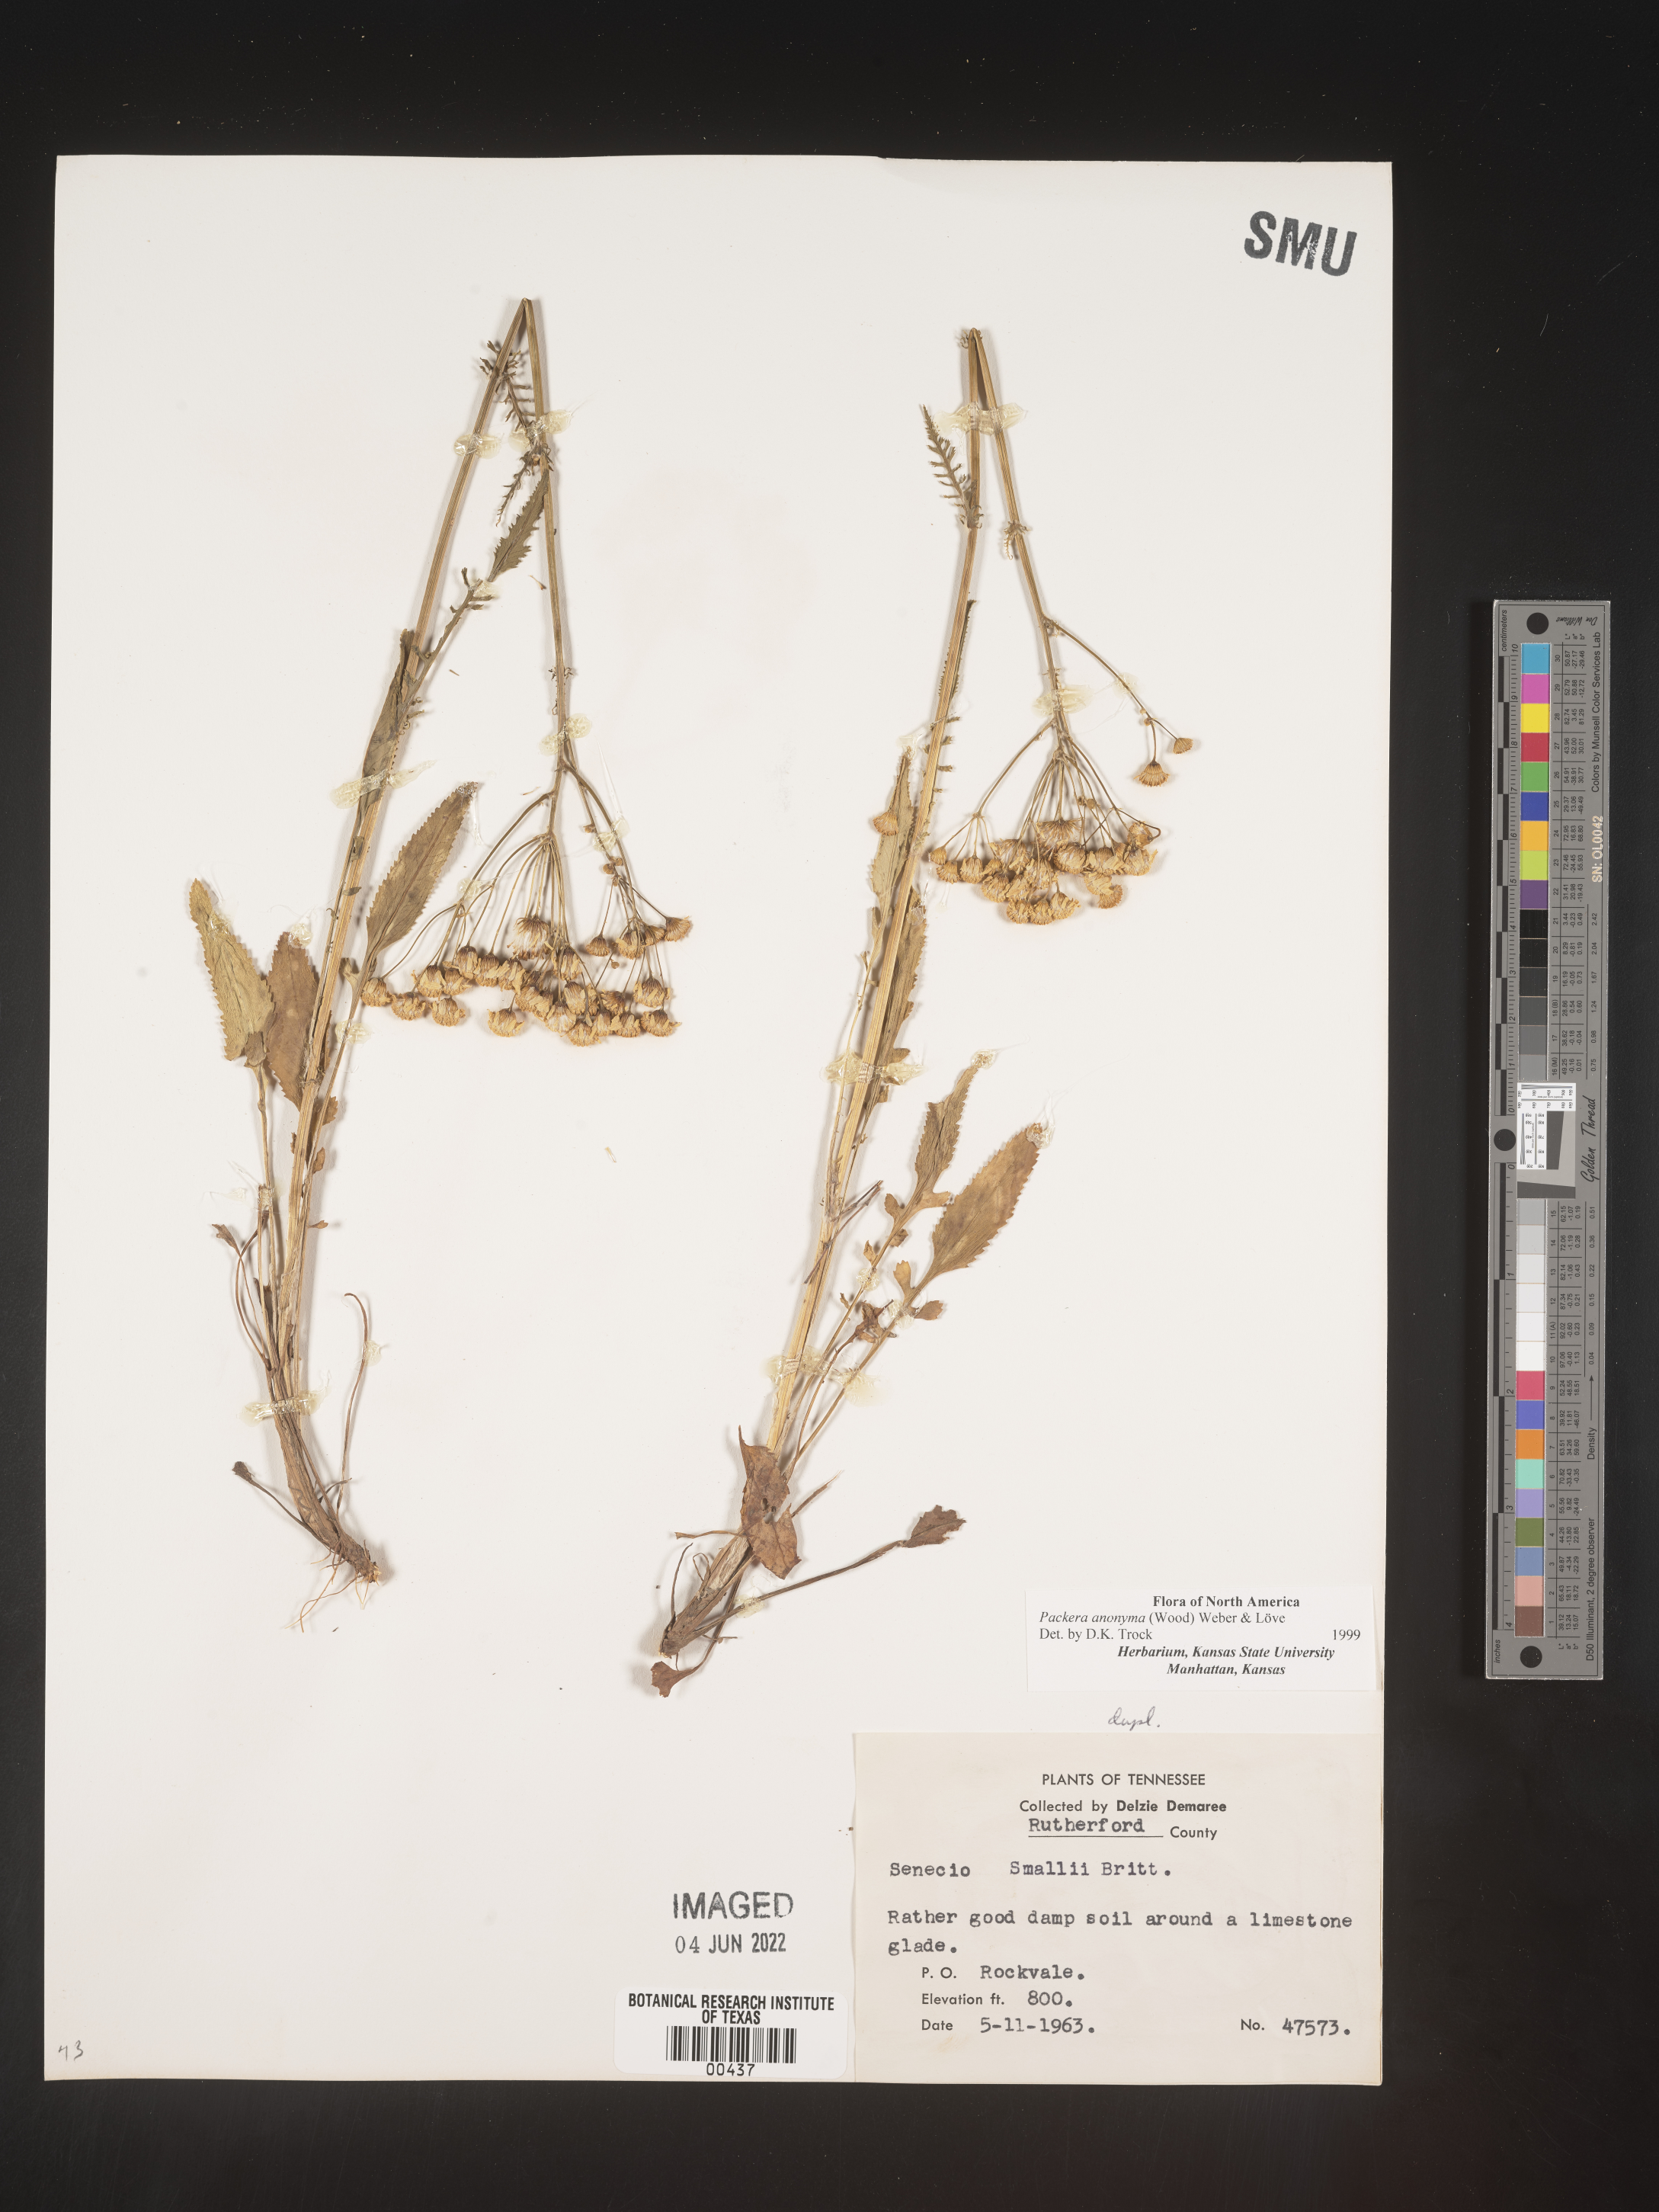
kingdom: Plantae
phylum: Tracheophyta
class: Magnoliopsida
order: Asterales
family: Asteraceae
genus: Packera
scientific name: Packera anonyma
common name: Small ragwort
